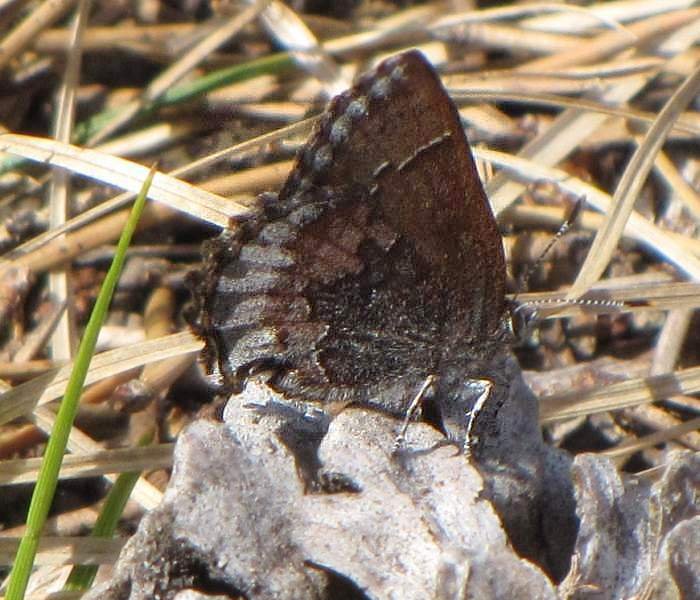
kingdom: Animalia
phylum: Arthropoda
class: Insecta
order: Lepidoptera
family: Lycaenidae
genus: Callophrys
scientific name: Callophrys polios
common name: Hoary Elfin
